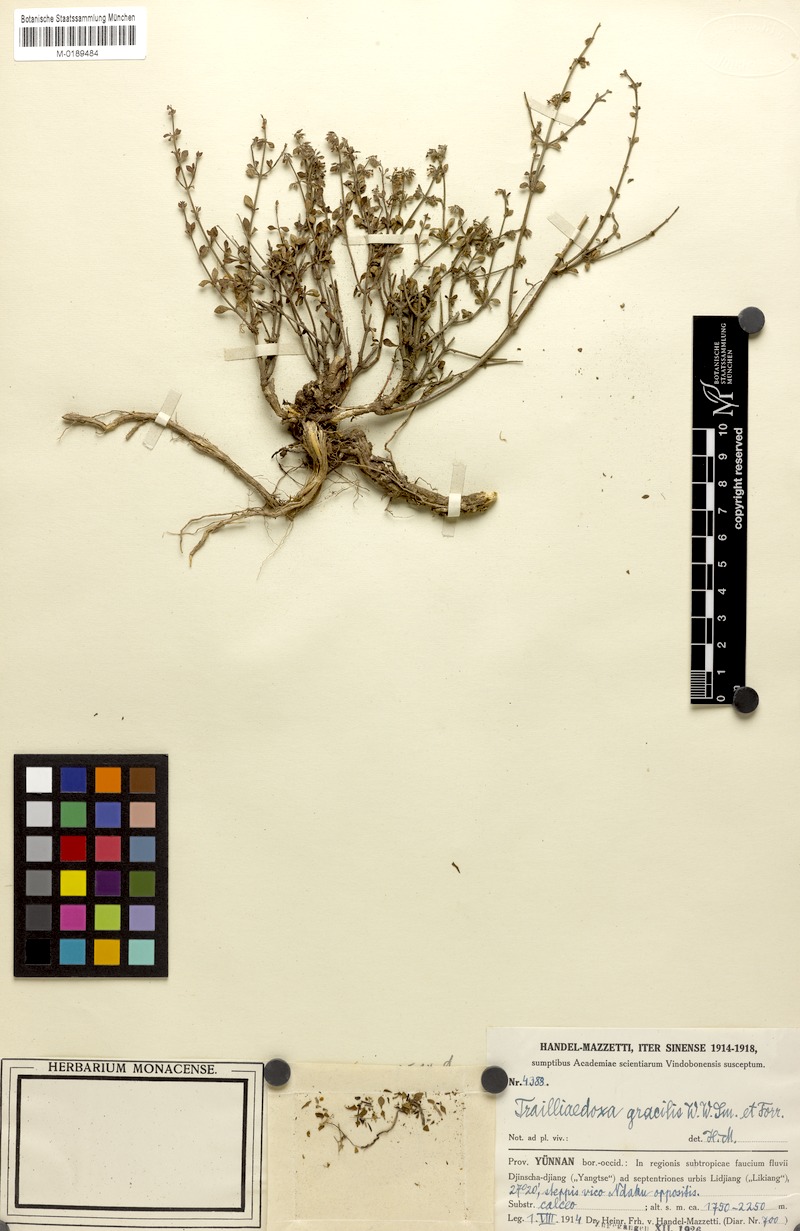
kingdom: Plantae
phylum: Tracheophyta
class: Magnoliopsida
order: Gentianales
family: Rubiaceae
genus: Trailliaedoxa
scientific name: Trailliaedoxa gracilis
